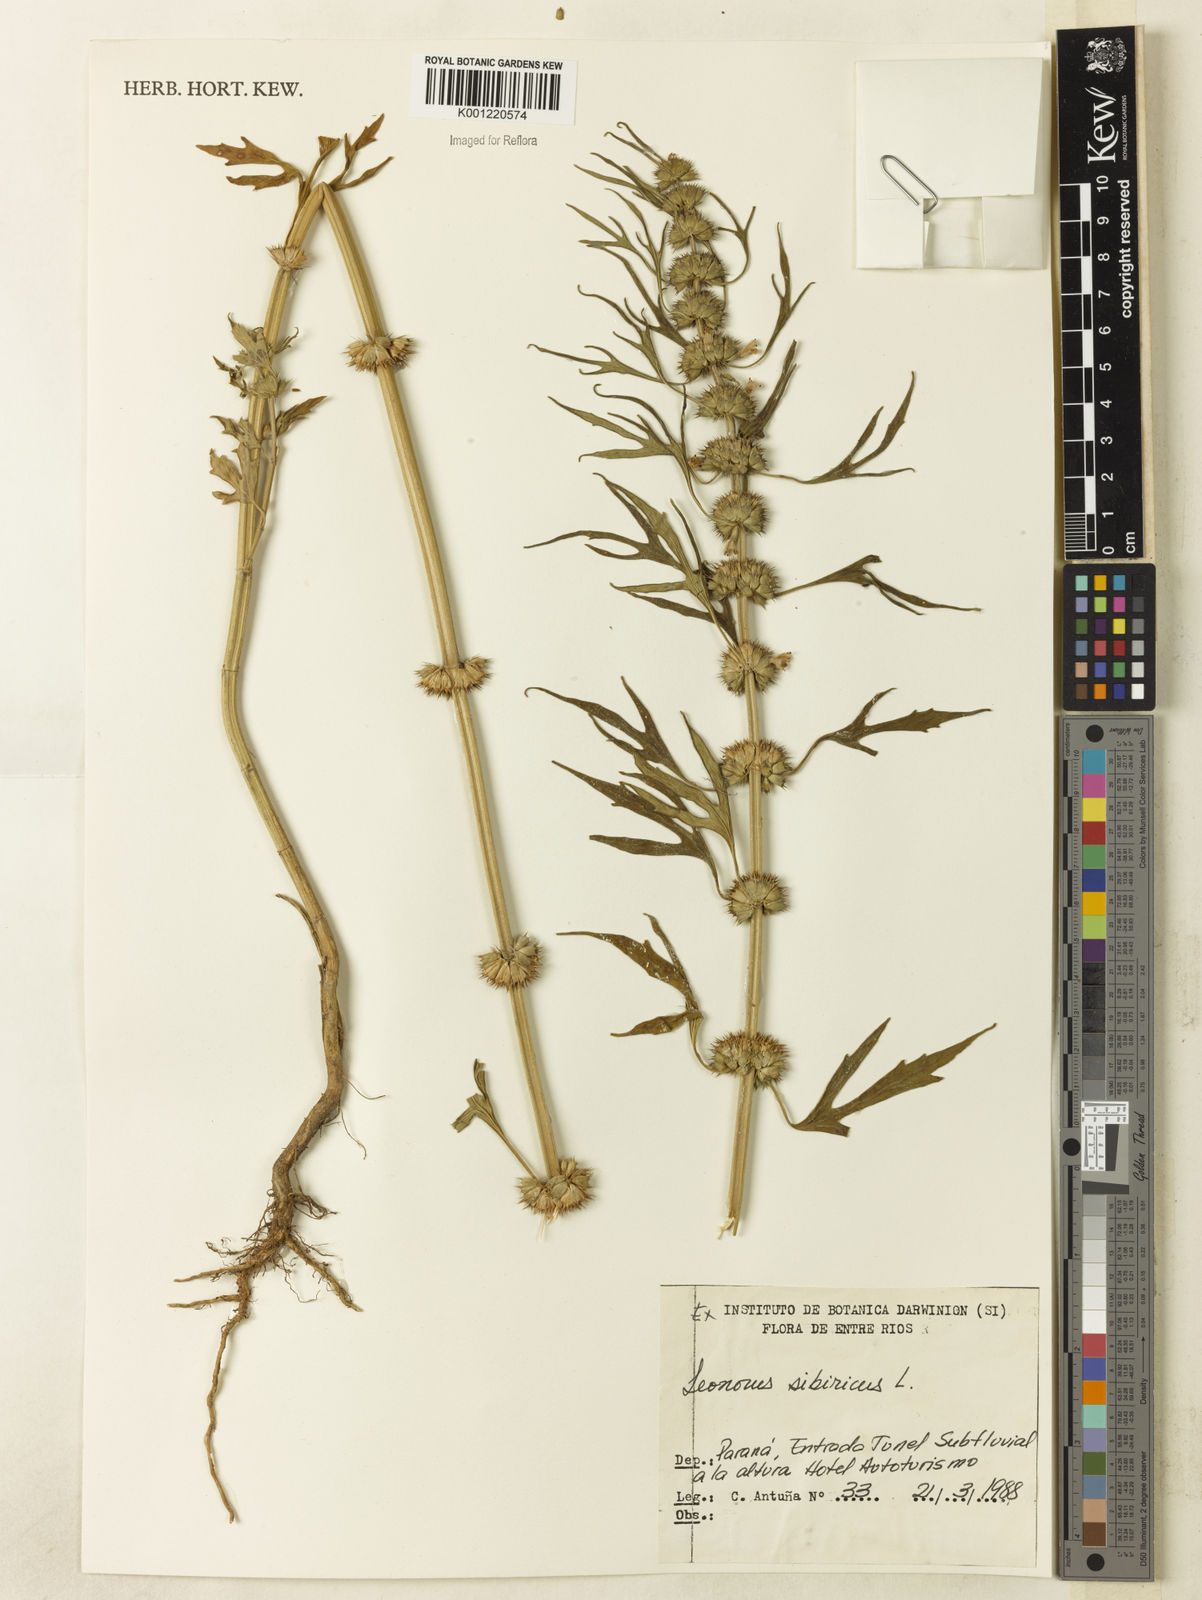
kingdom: Plantae
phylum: Tracheophyta
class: Magnoliopsida
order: Lamiales
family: Lamiaceae
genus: Leonurus
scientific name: Leonurus japonicus
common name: Honeyweed
